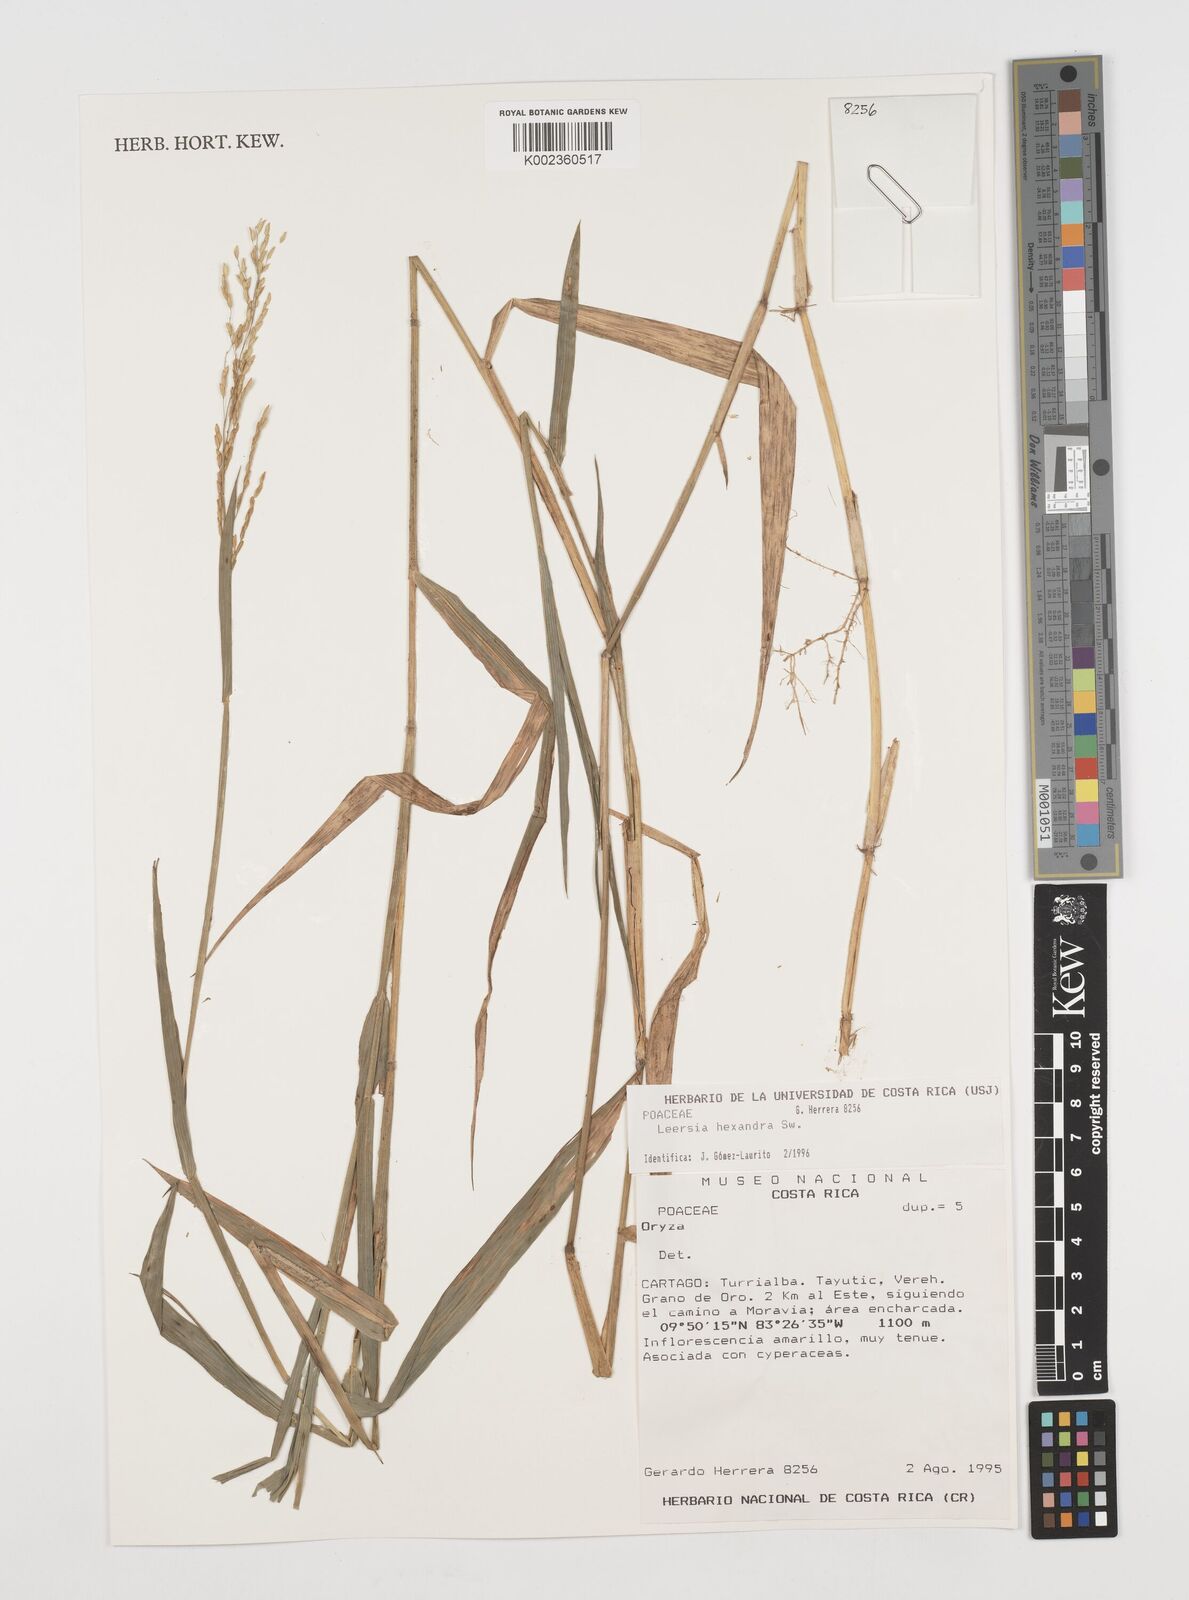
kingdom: Plantae
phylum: Tracheophyta
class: Liliopsida
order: Poales
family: Poaceae
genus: Leersia
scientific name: Leersia hexandra
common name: Southern cut grass
